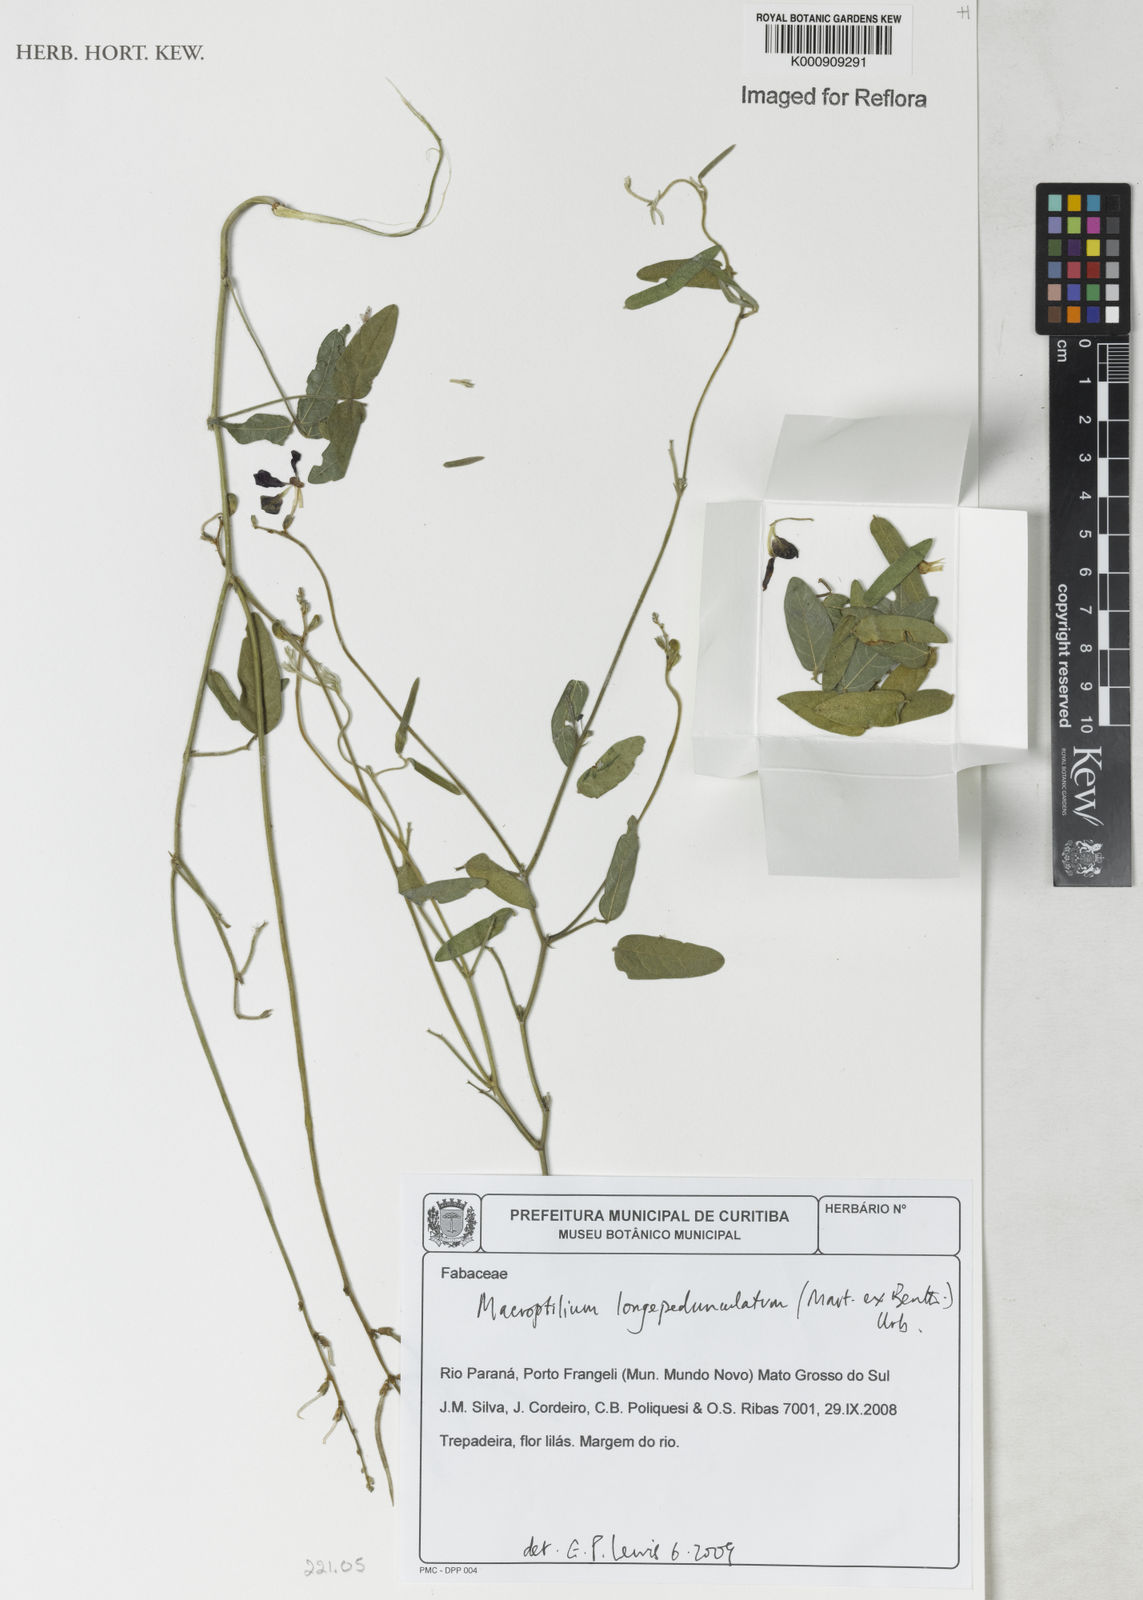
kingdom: Plantae
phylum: Tracheophyta
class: Magnoliopsida
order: Fabales
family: Fabaceae
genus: Macroptilium
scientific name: Macroptilium
